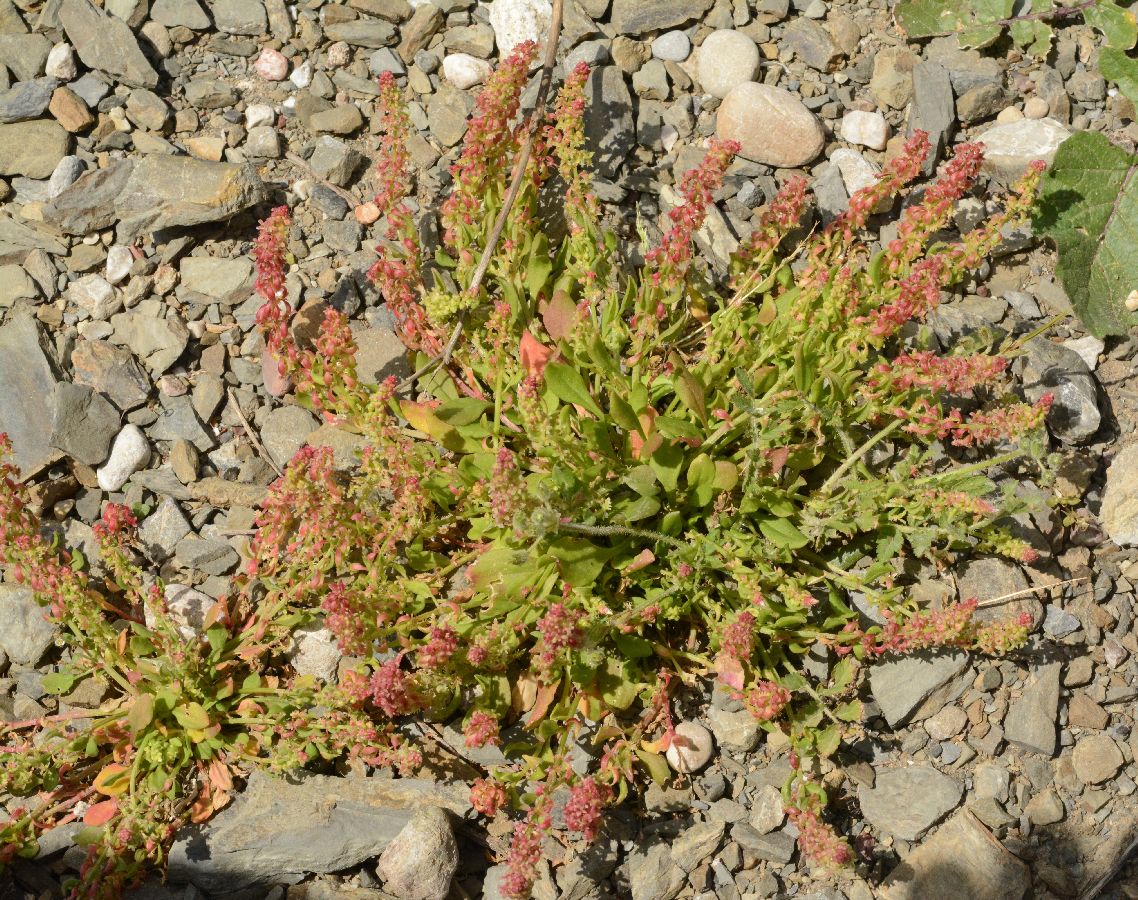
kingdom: Plantae
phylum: Tracheophyta
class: Magnoliopsida
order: Caryophyllales
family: Polygonaceae
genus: Rumex
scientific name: Rumex bucephalophorus
